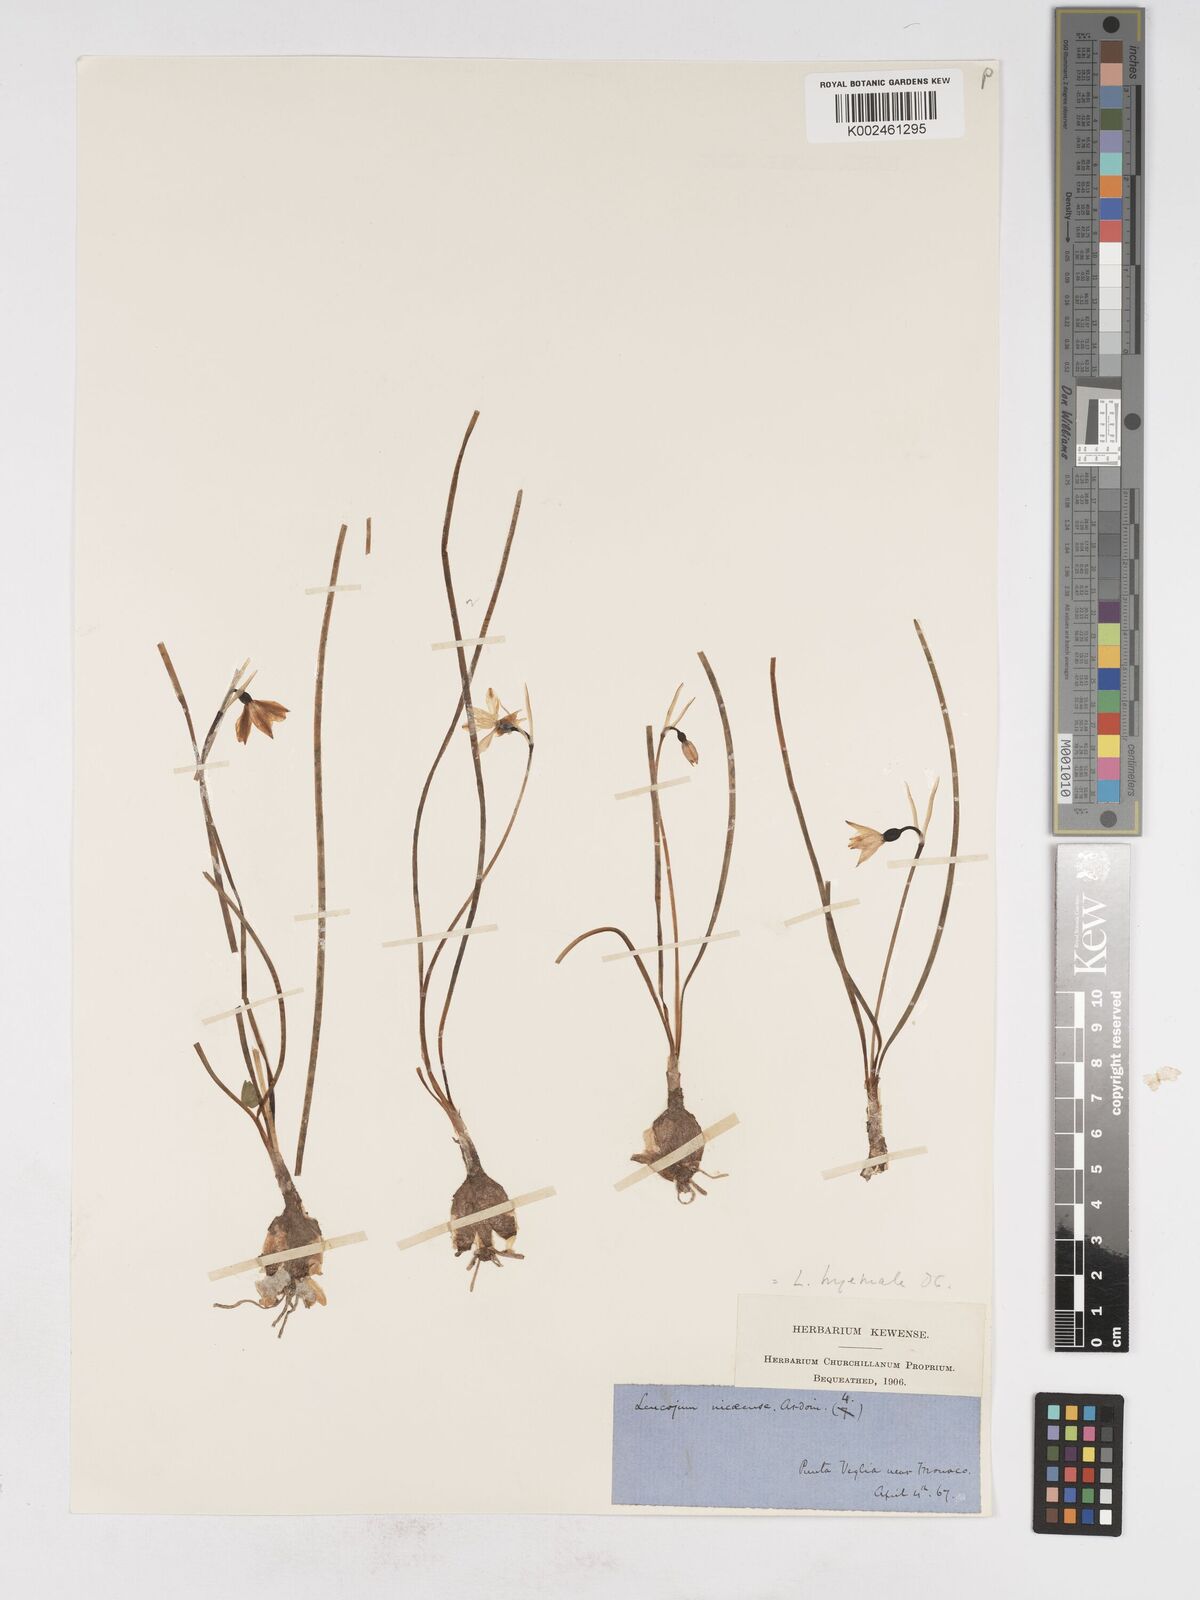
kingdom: Plantae
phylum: Tracheophyta
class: Liliopsida
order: Asparagales
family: Amaryllidaceae
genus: Acis
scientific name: Acis nicaeensis
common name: French snowflake
